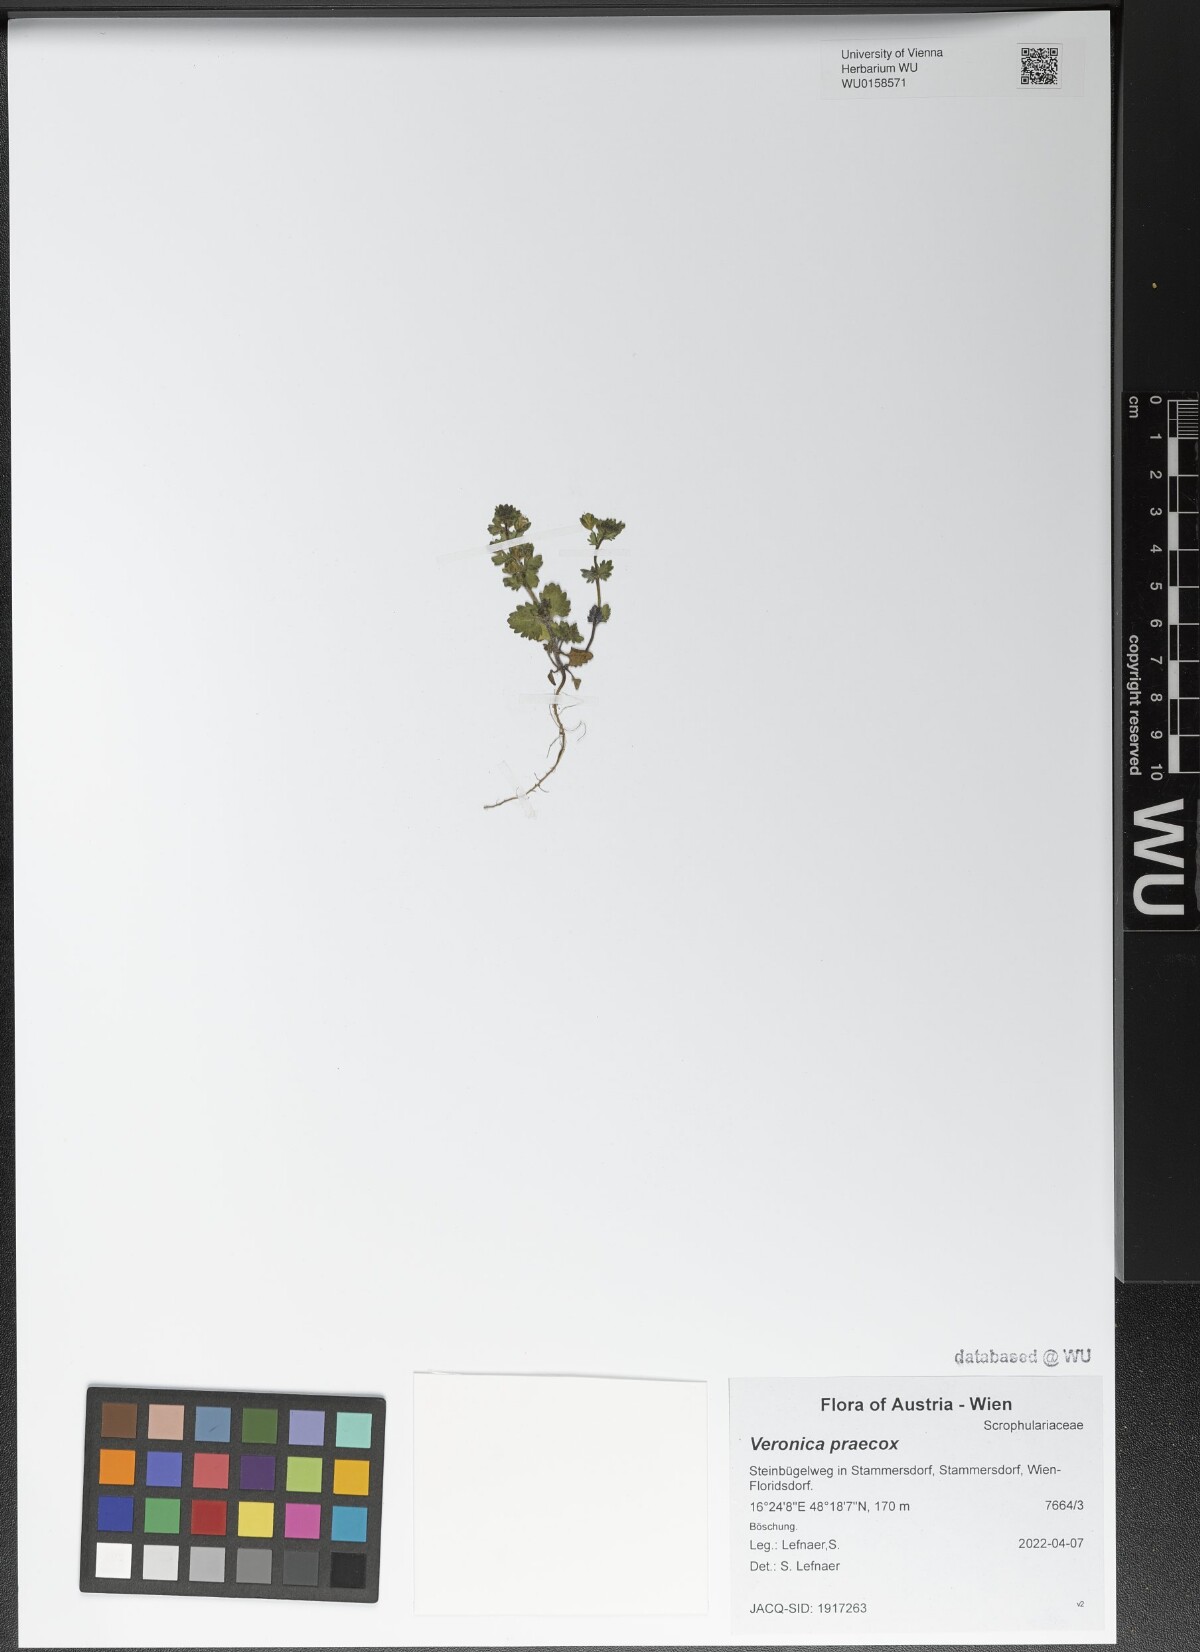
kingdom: Plantae
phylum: Tracheophyta
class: Magnoliopsida
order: Lamiales
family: Plantaginaceae
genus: Veronica
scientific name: Veronica praecox
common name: Breckland speedwell
